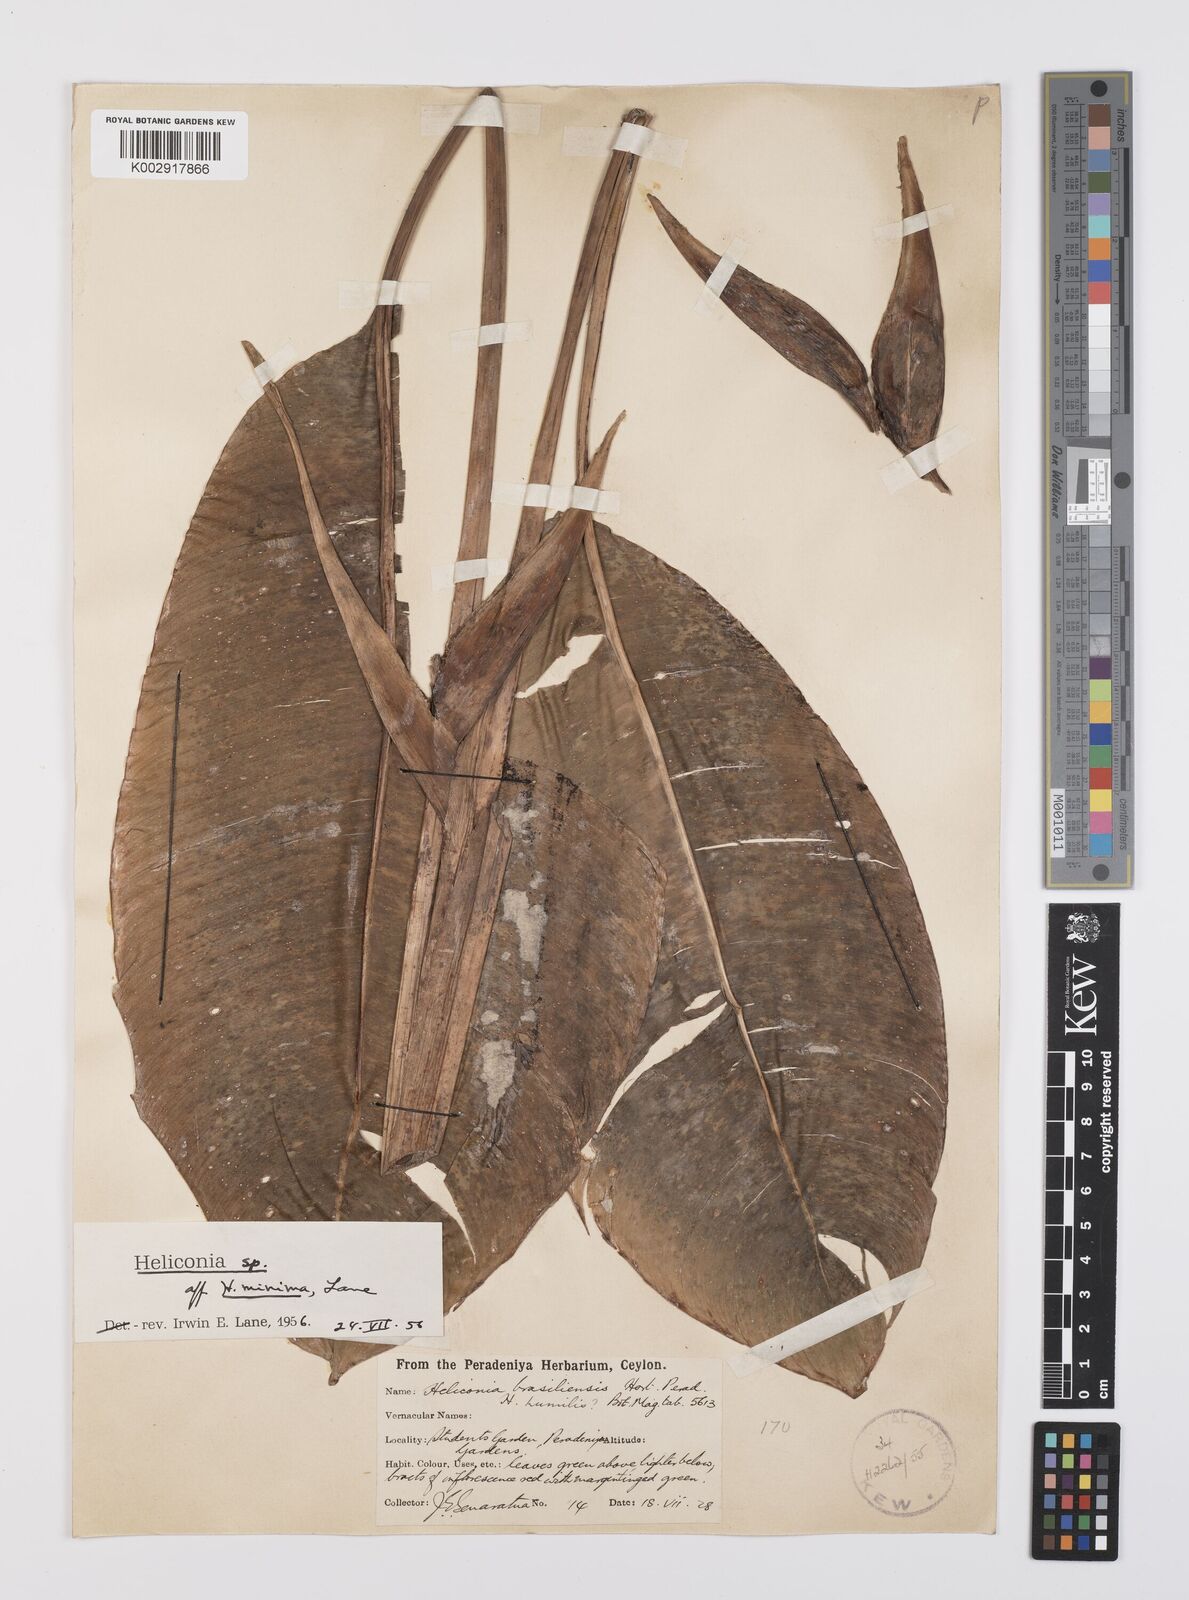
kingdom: Plantae
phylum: Tracheophyta
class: Liliopsida
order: Zingiberales
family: Heliconiaceae
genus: Heliconia
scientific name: Heliconia
